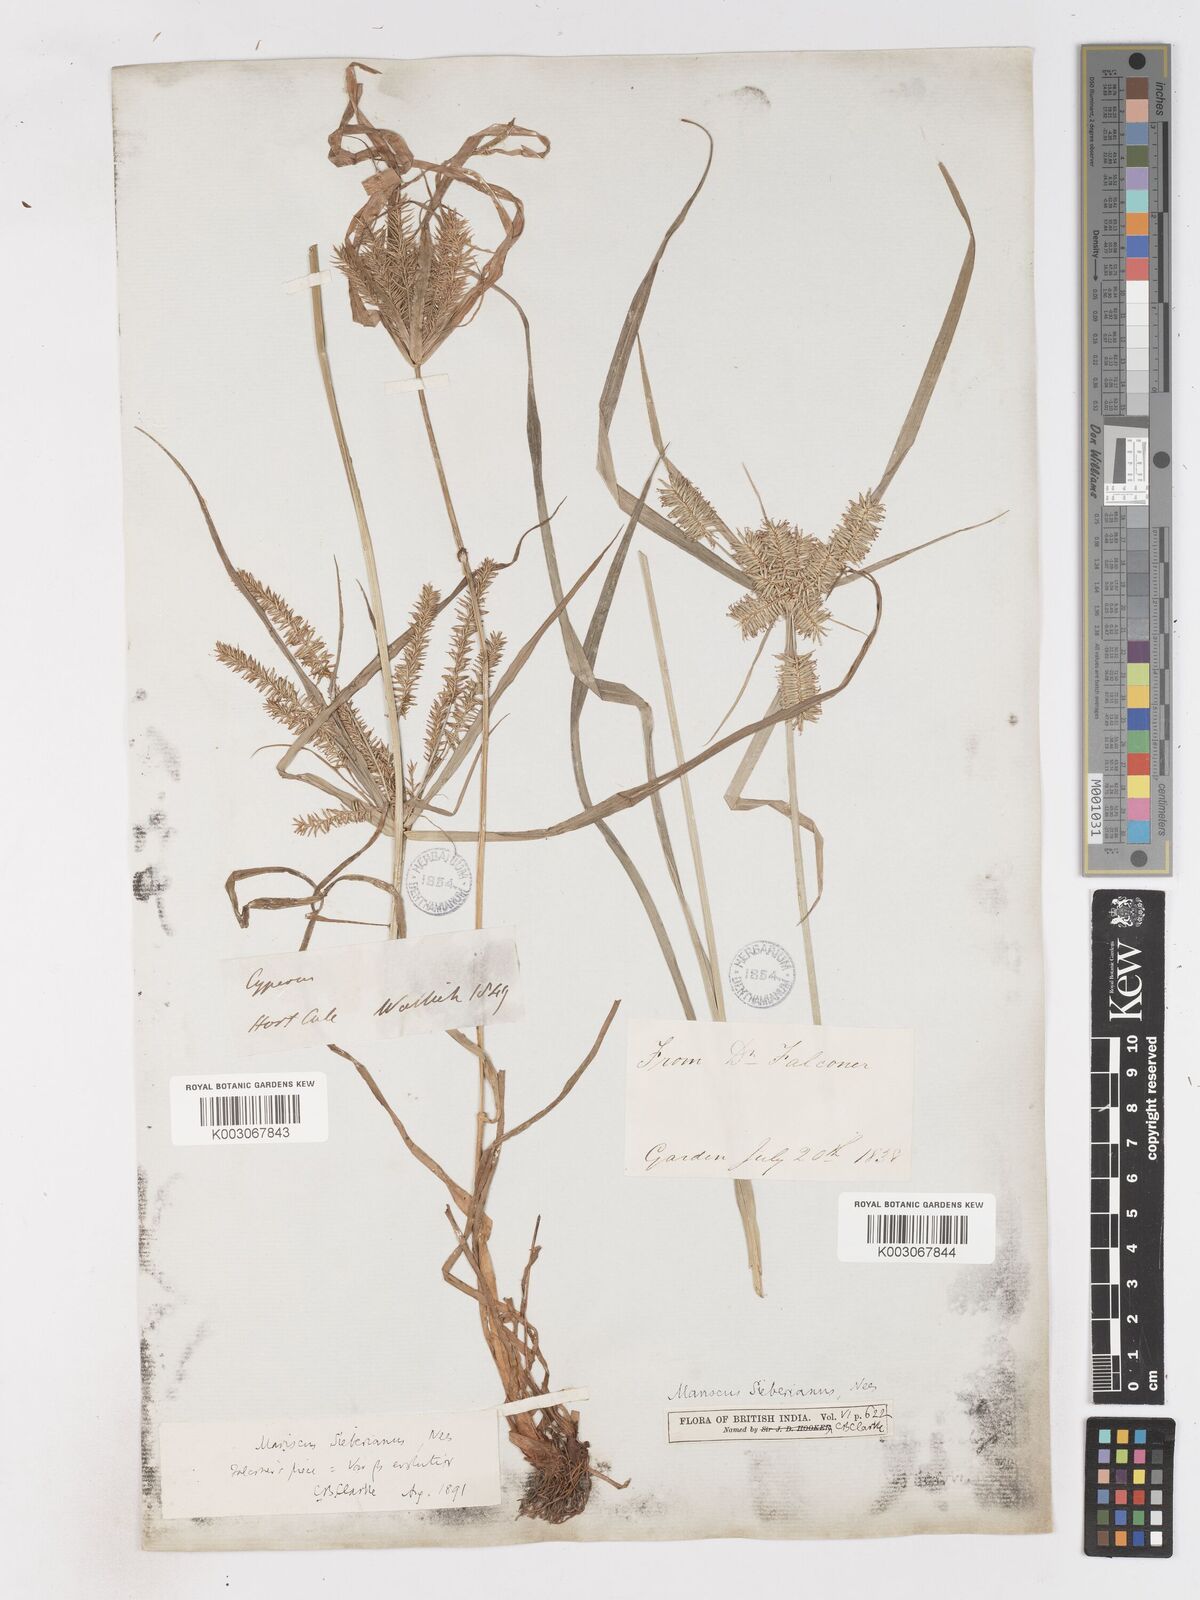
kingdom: Plantae
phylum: Tracheophyta
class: Liliopsida
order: Poales
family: Cyperaceae
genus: Cyperus
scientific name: Cyperus cyperoides
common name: Pacific island flat sedge
